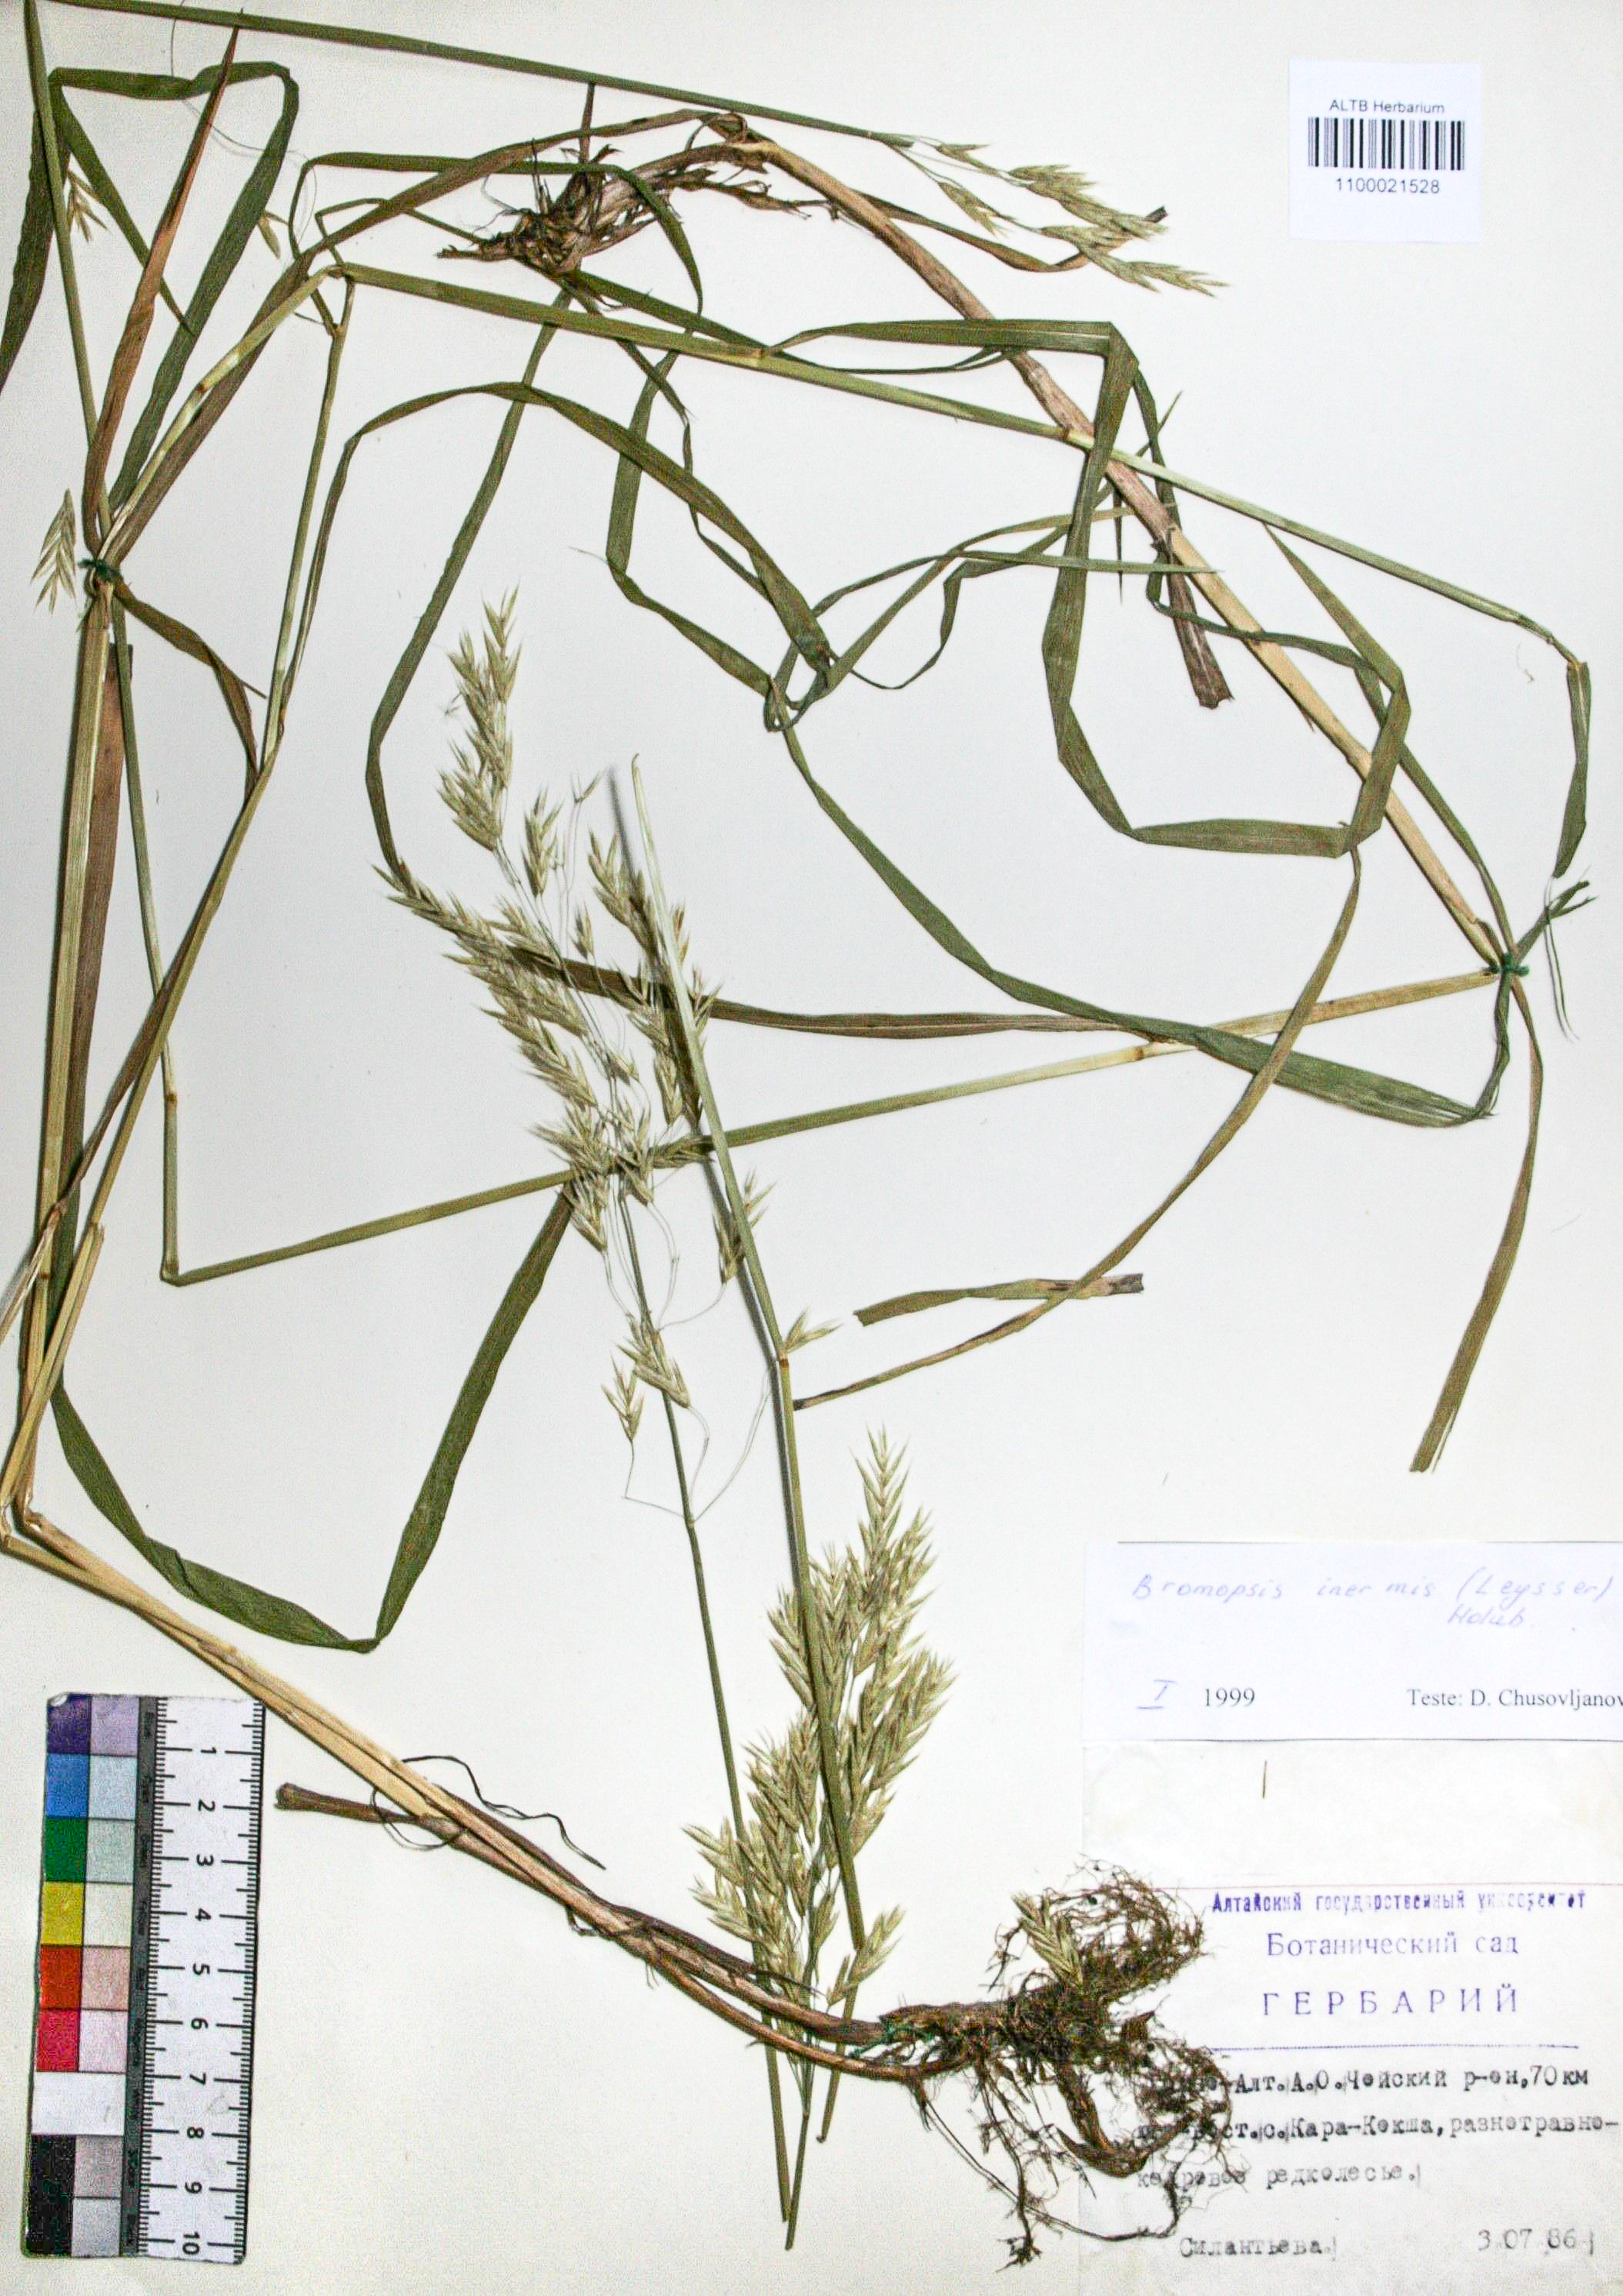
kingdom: Plantae
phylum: Tracheophyta
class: Liliopsida
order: Poales
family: Poaceae
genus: Bromus
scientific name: Bromus inermis
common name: Smooth brome
